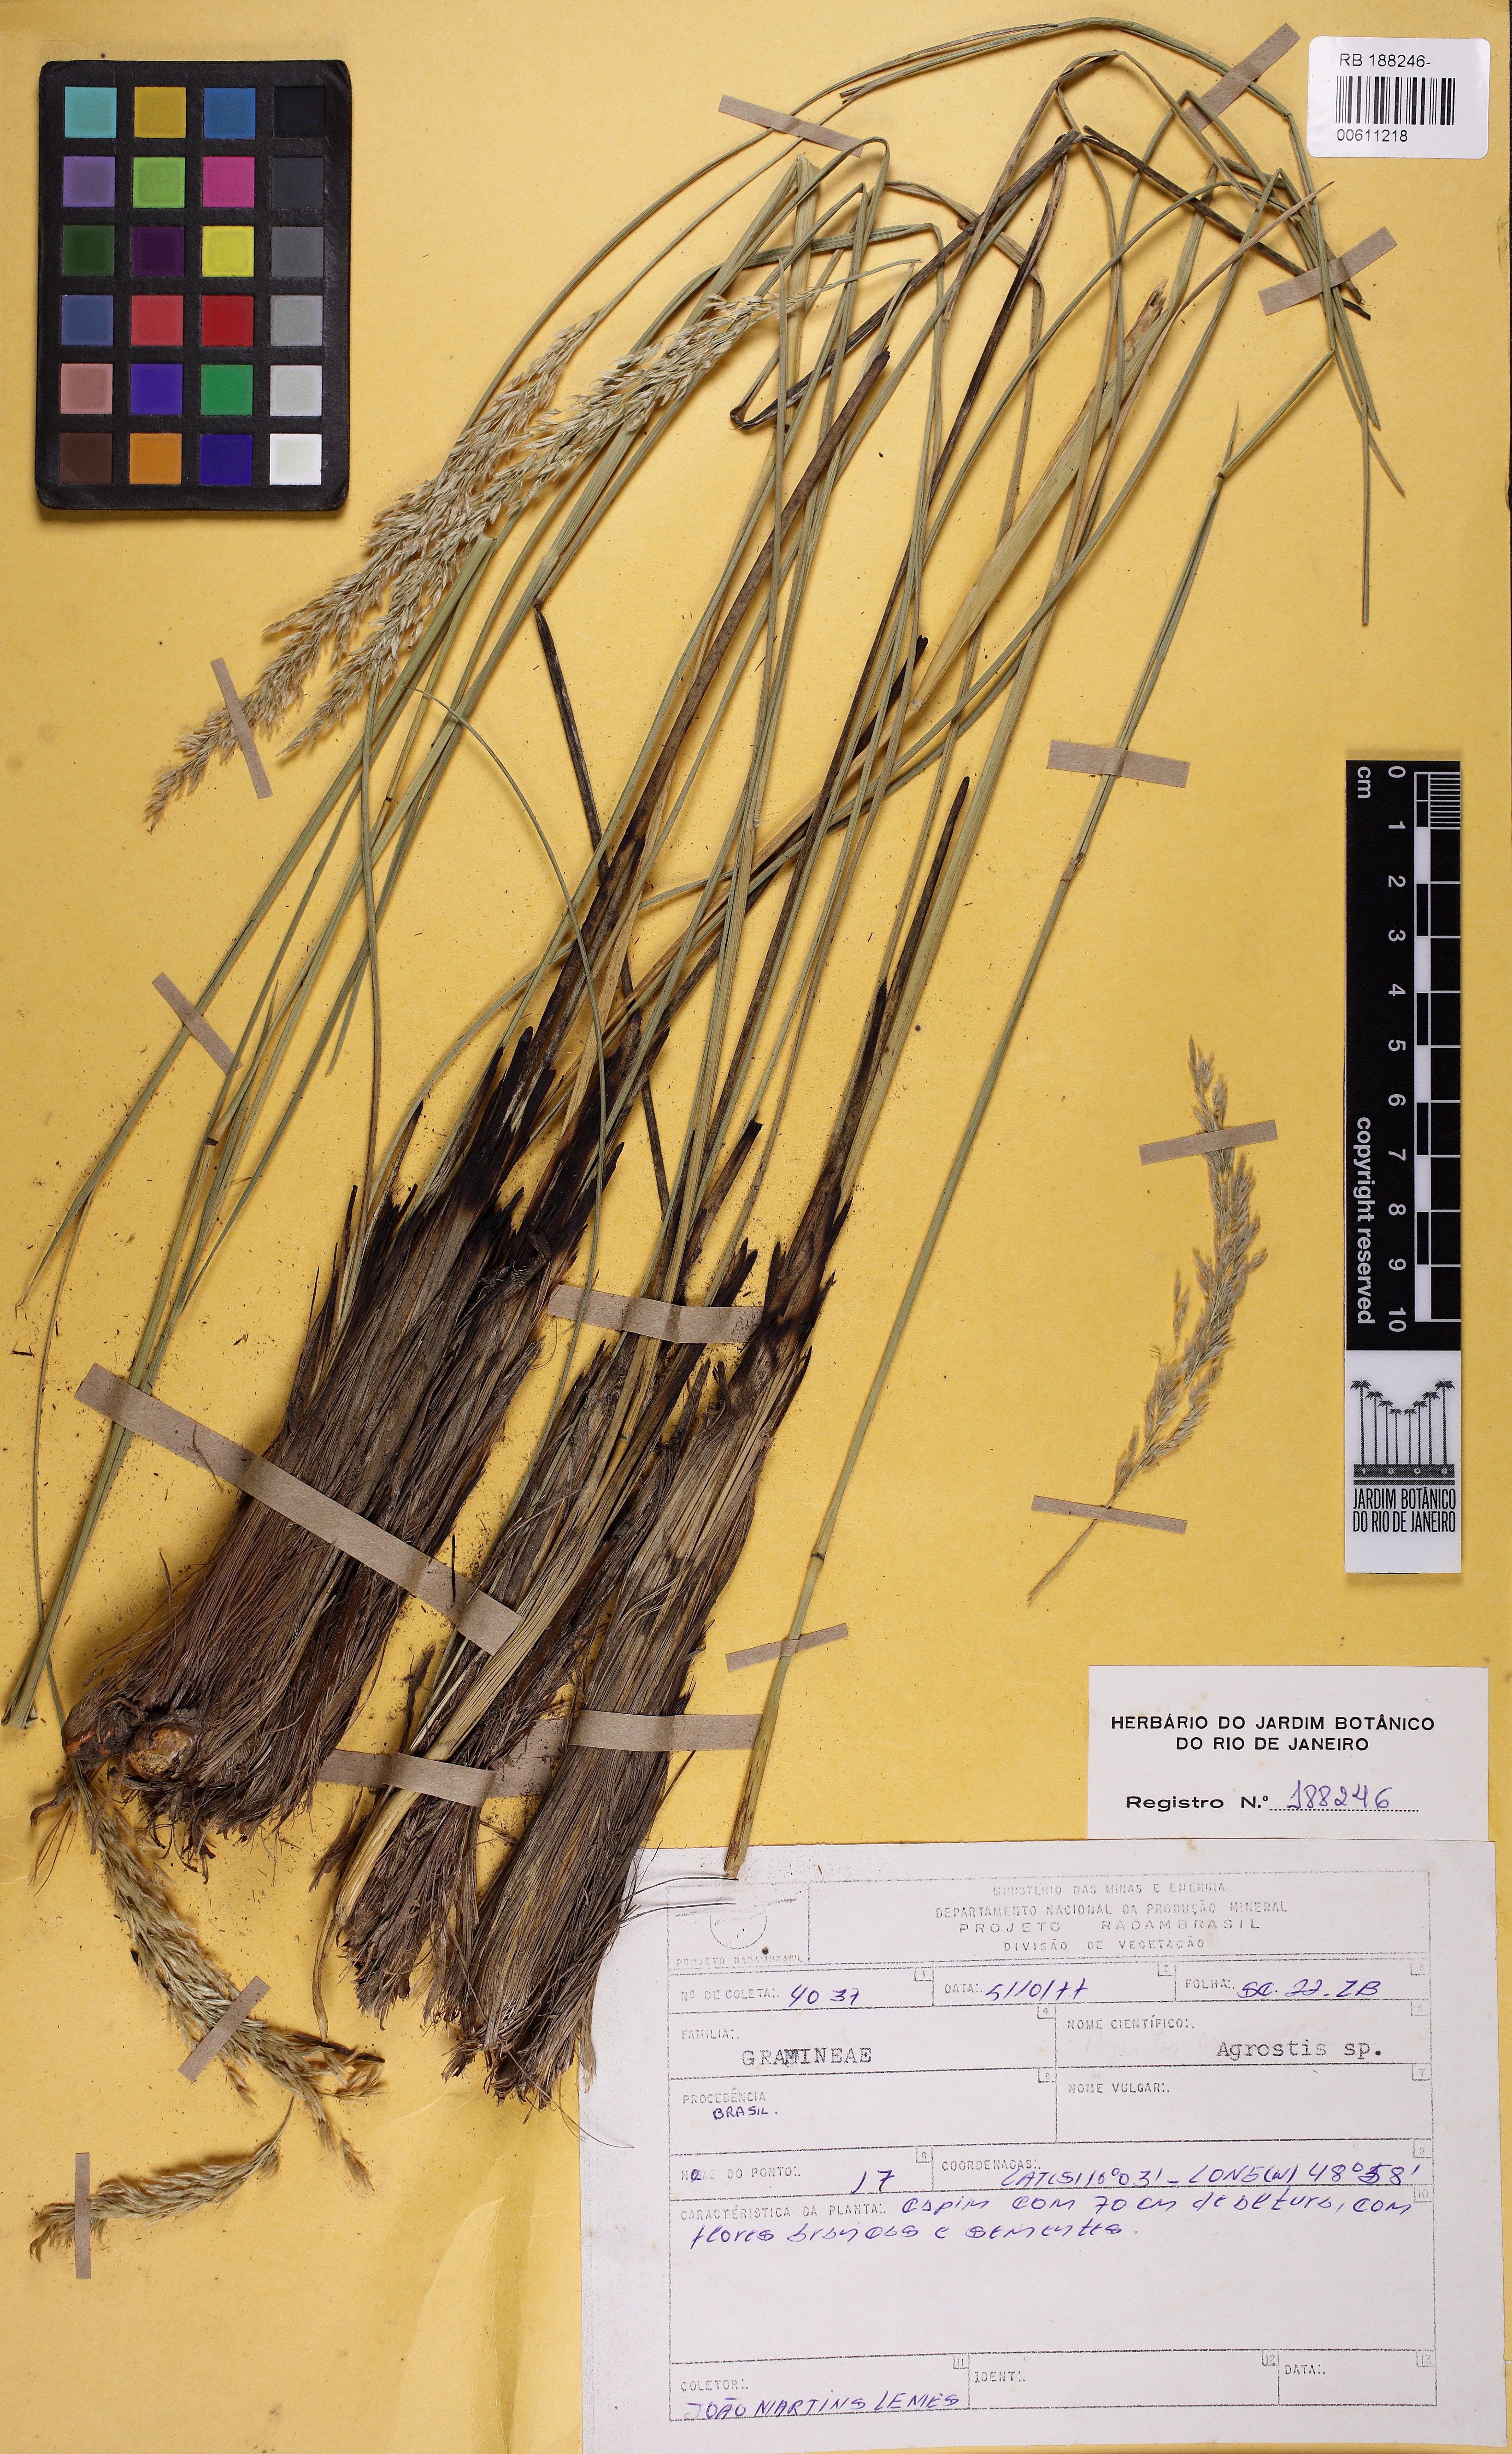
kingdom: Plantae
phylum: Tracheophyta
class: Liliopsida
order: Poales
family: Poaceae
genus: Agrostis
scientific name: Agrostis
